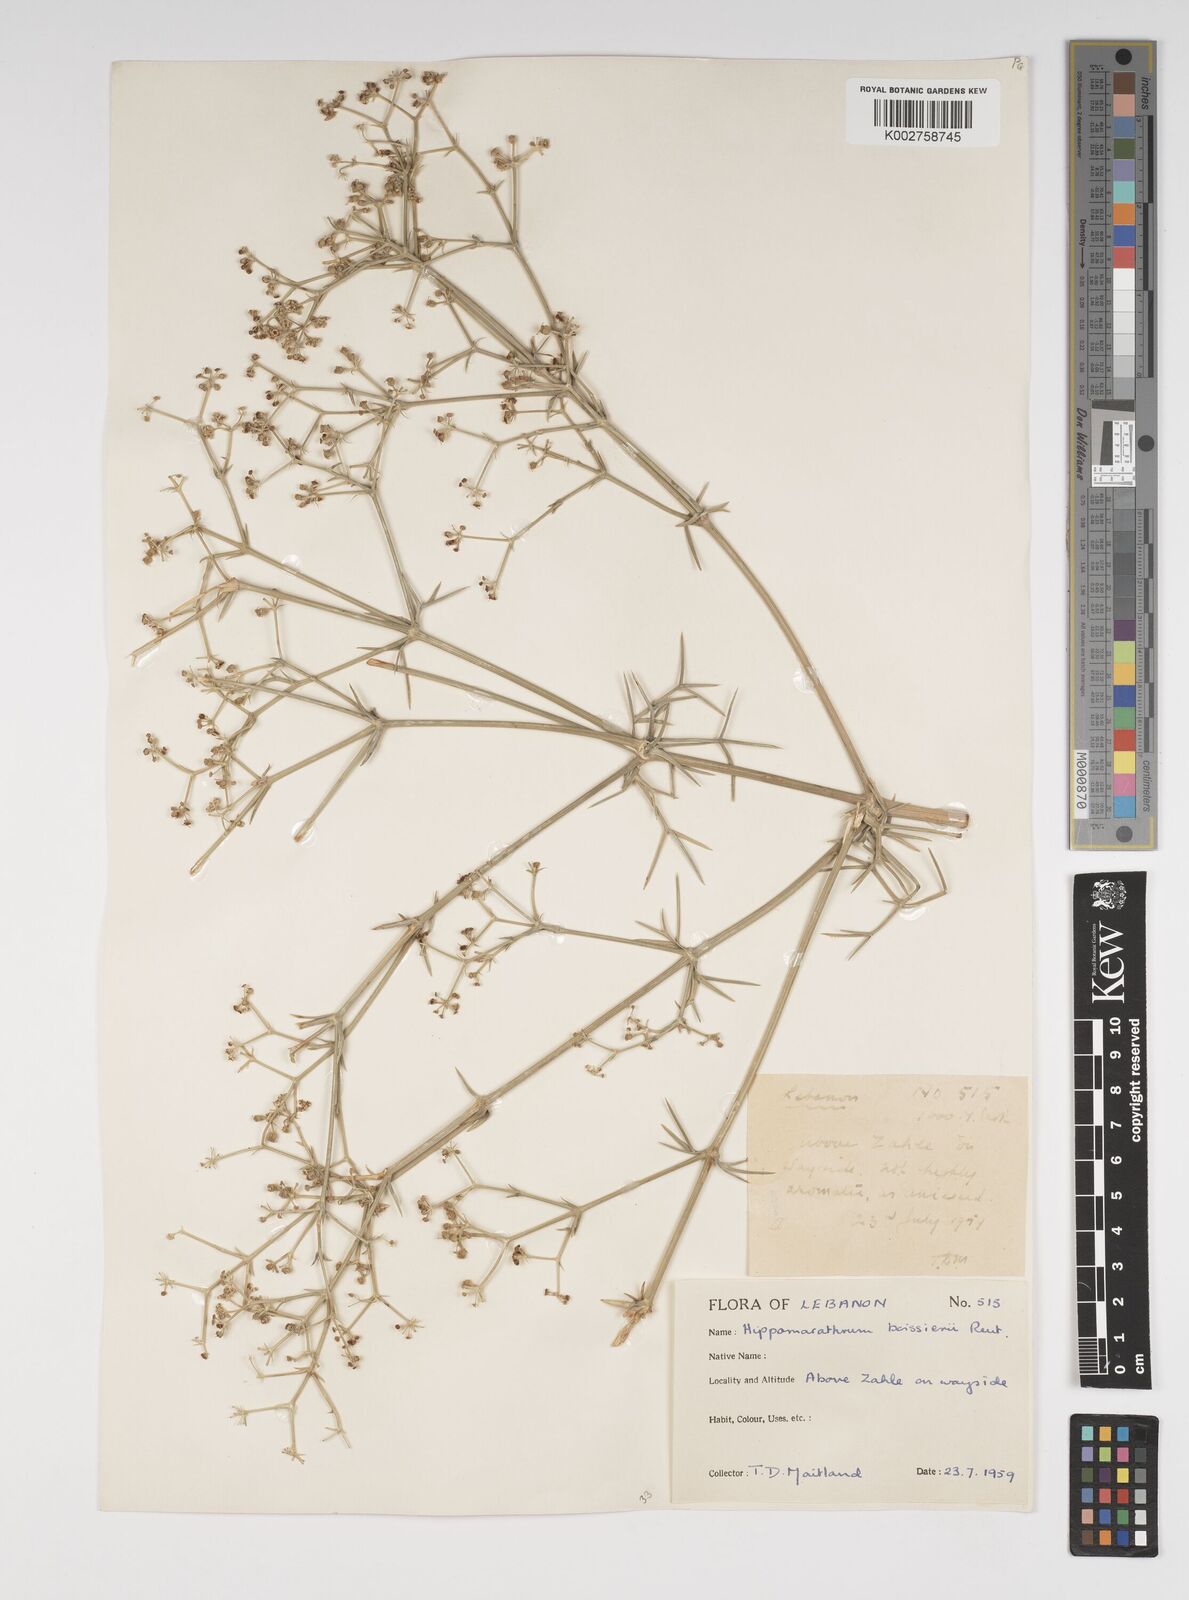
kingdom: Plantae
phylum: Tracheophyta
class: Magnoliopsida
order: Apiales
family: Apiaceae
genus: Cachrys
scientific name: Cachrys boissieri
